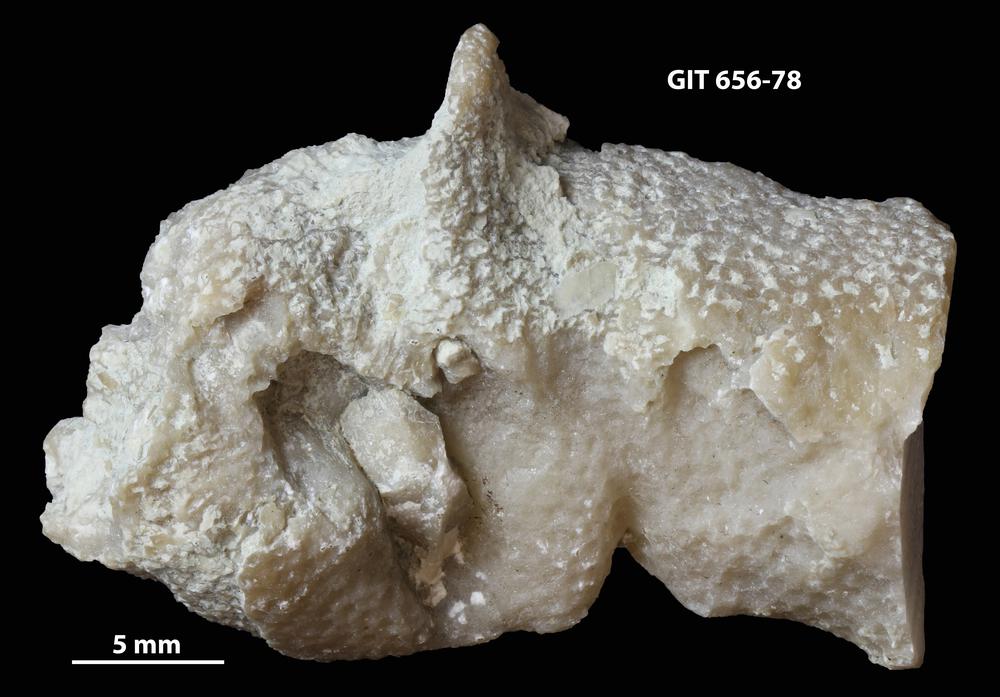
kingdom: Animalia
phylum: Cnidaria
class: Anthozoa
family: Theciidae
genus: Laceripora
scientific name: Laceripora
